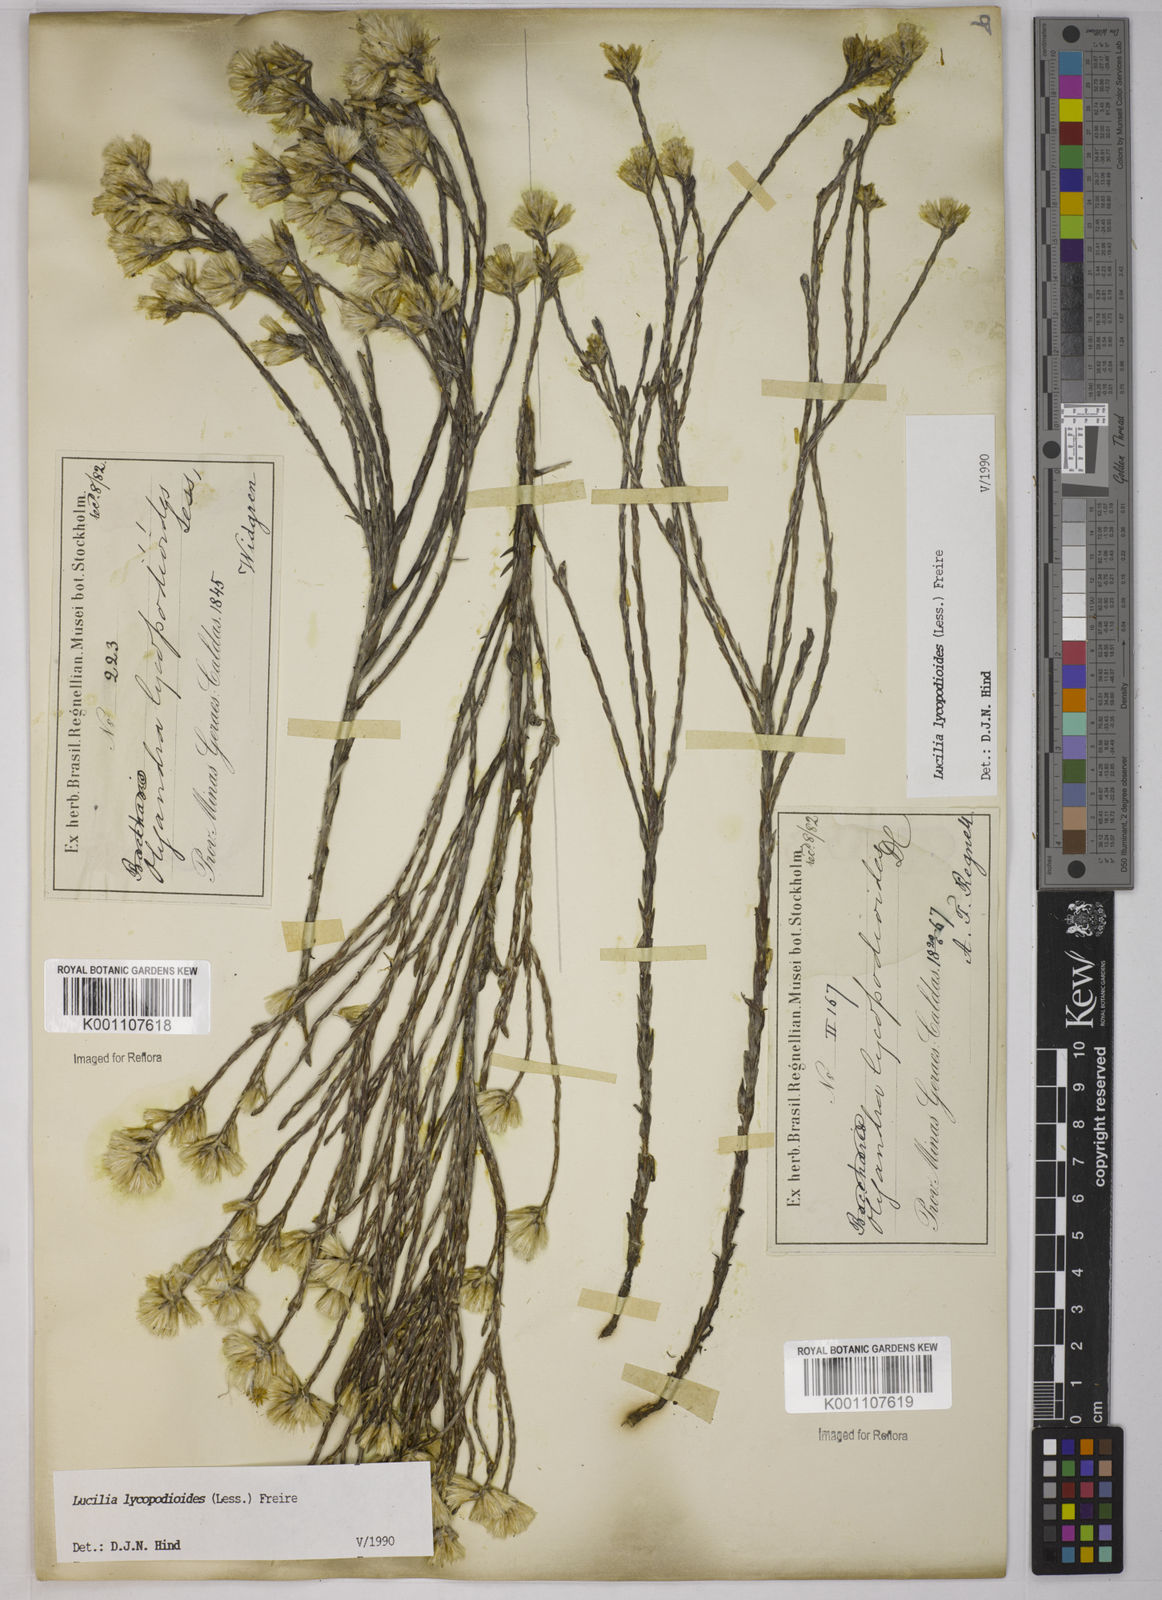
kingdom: Plantae
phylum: Tracheophyta
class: Magnoliopsida
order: Asterales
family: Asteraceae
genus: Lucilia
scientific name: Lucilia lycopodioides
